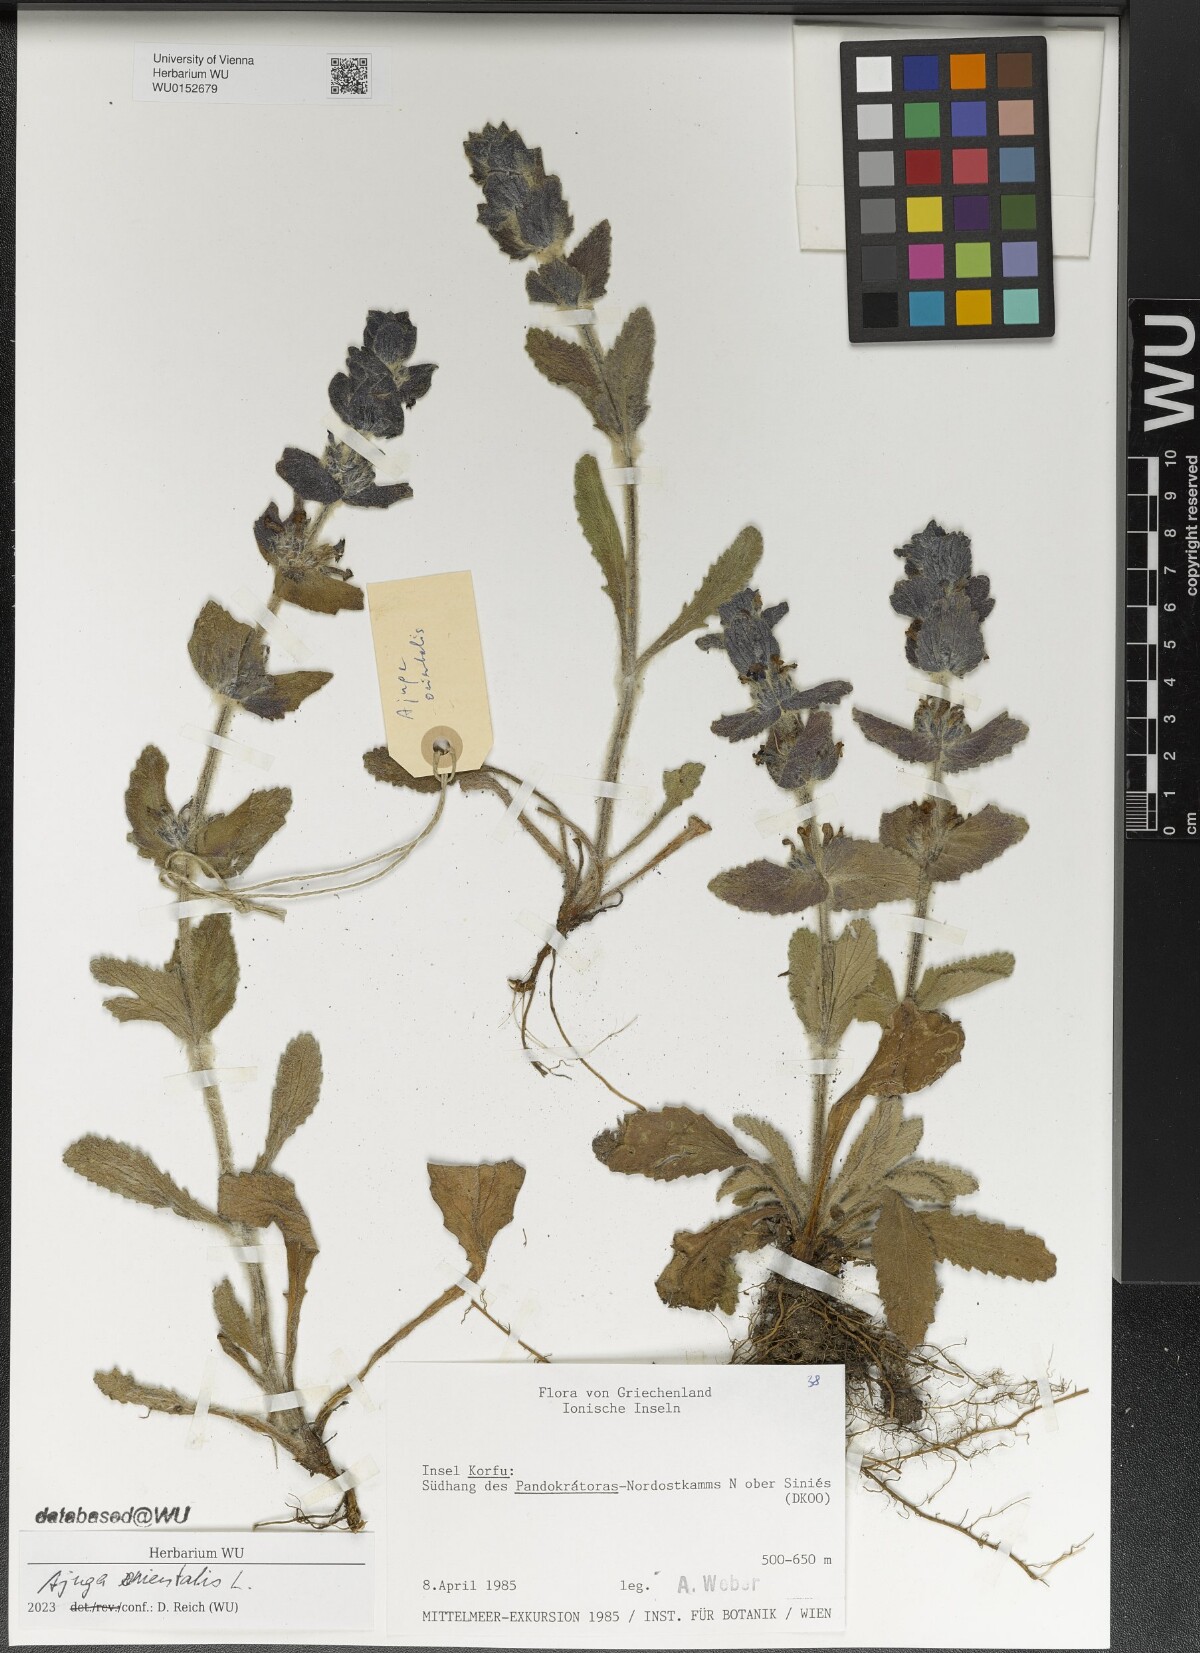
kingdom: Plantae
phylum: Tracheophyta
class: Magnoliopsida
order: Lamiales
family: Lamiaceae
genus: Ajuga
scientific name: Ajuga orientalis
